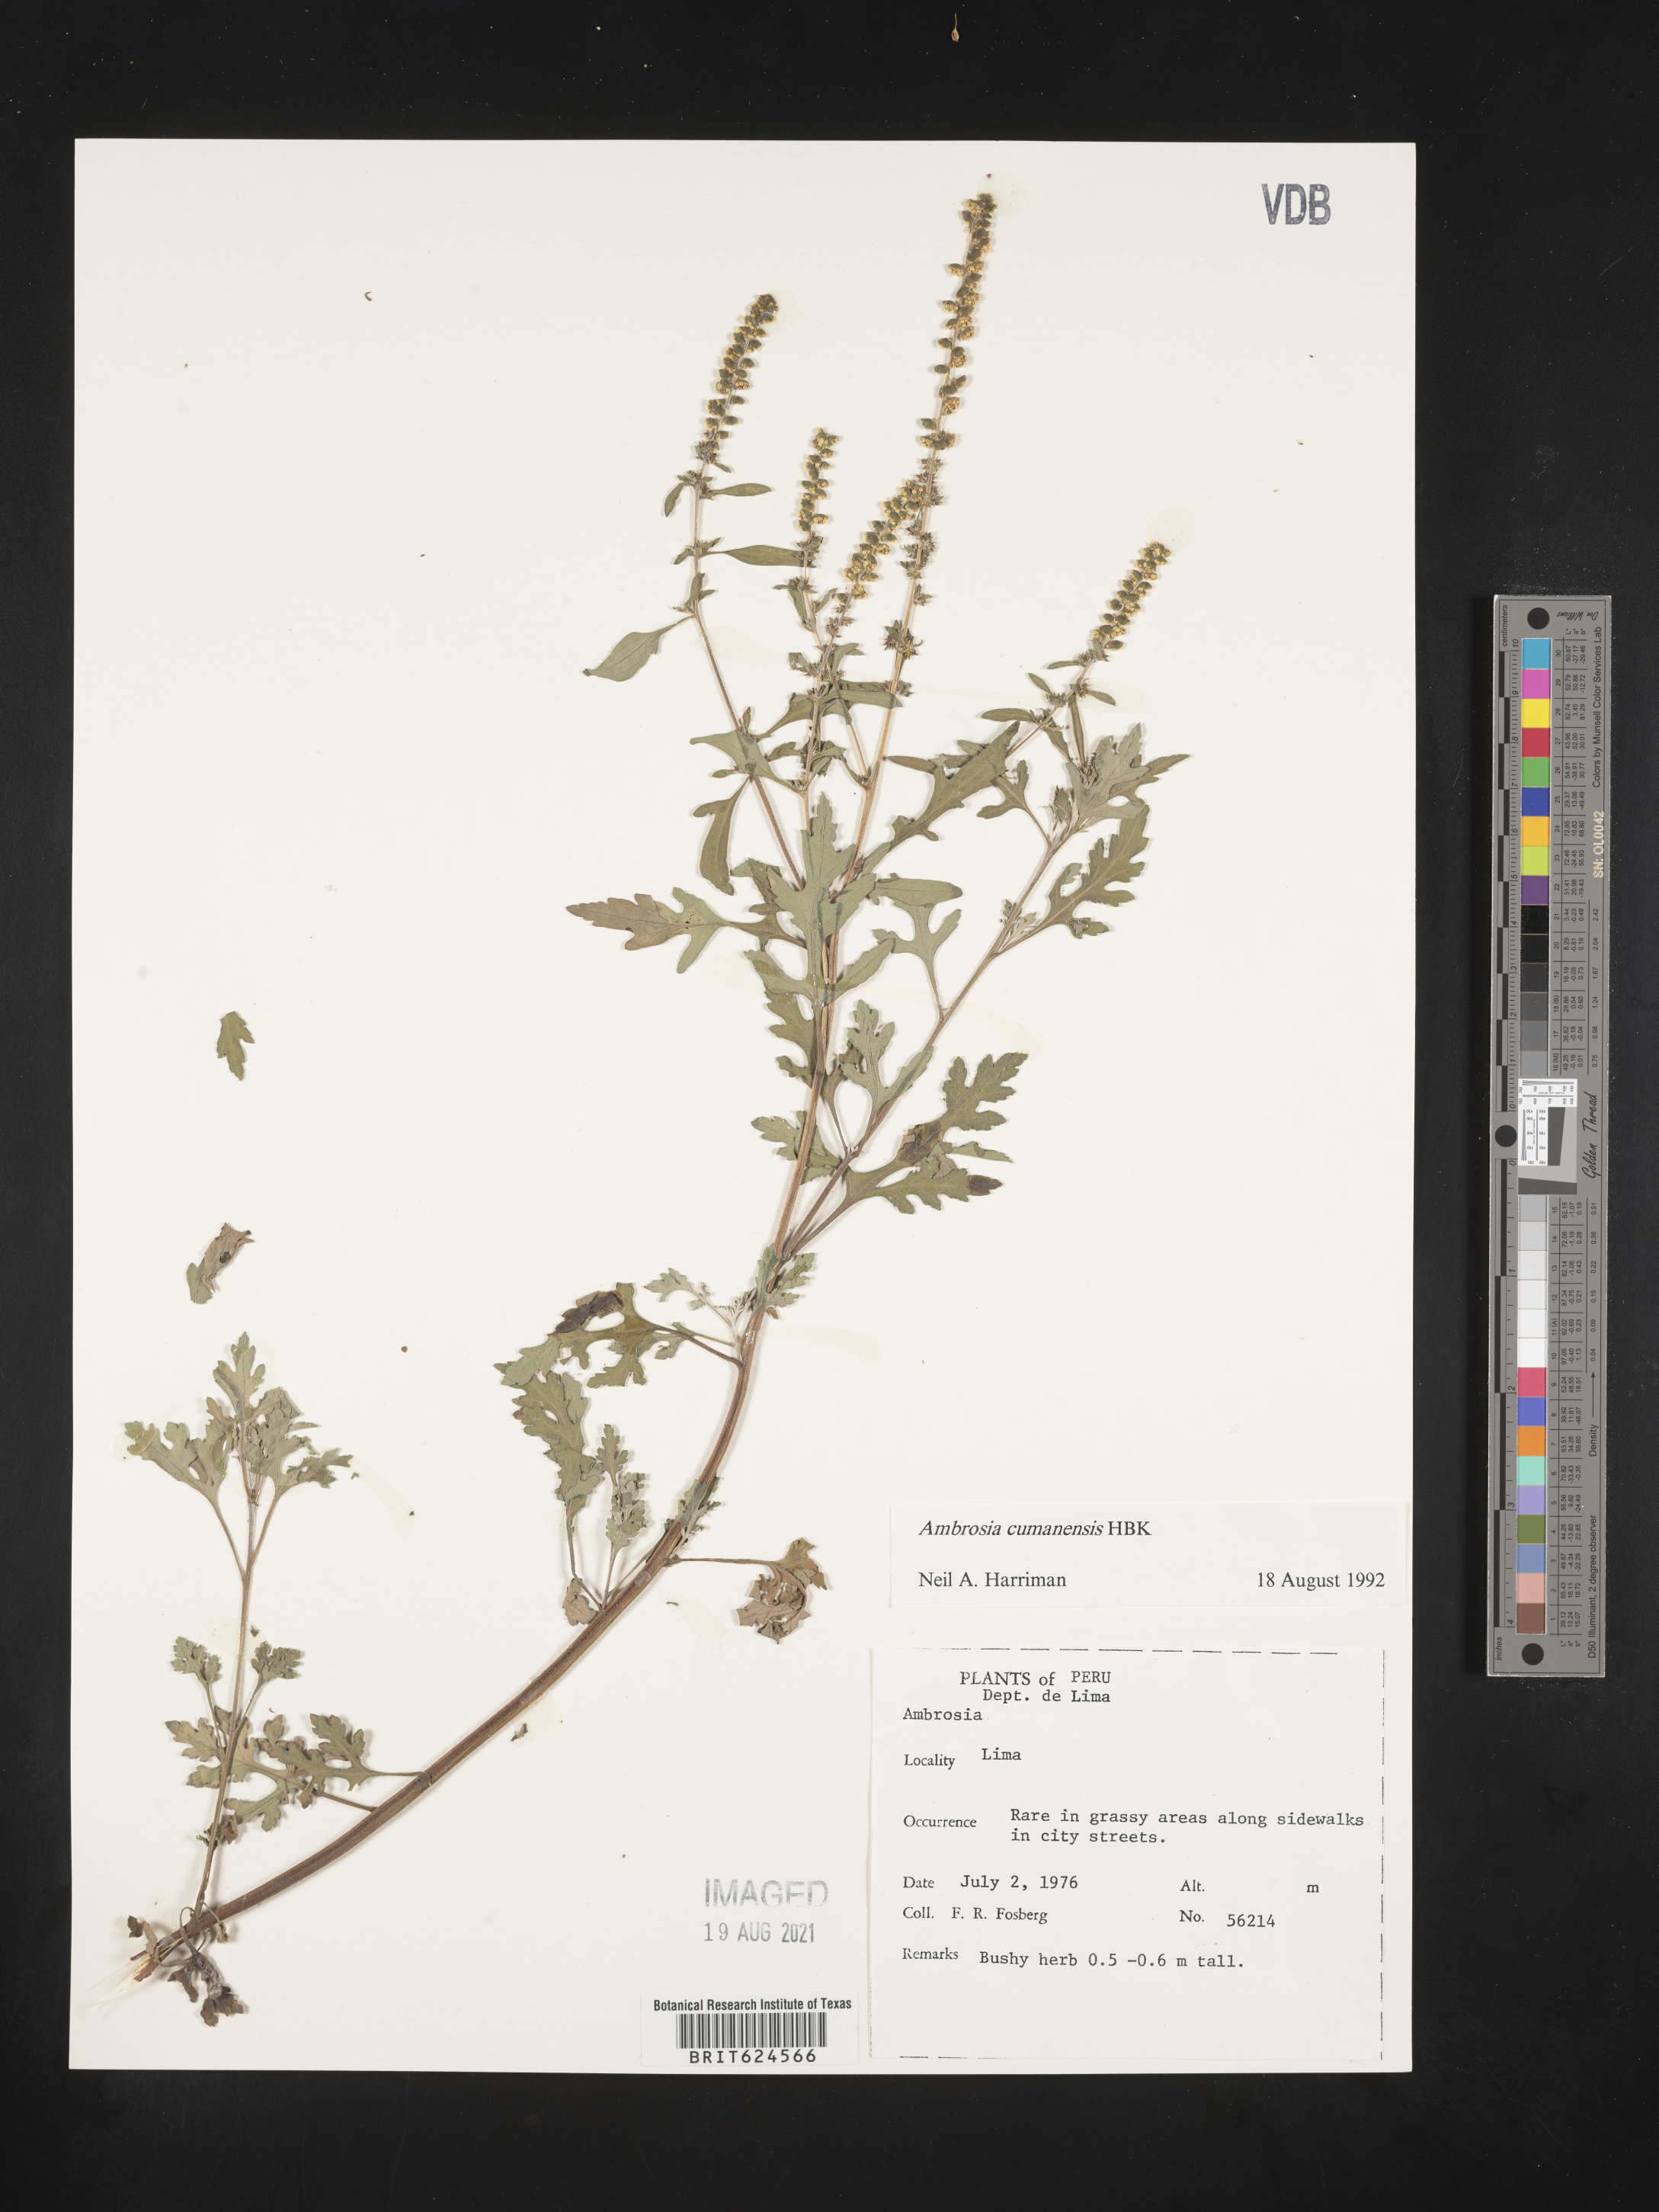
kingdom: Plantae
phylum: Tracheophyta
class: Magnoliopsida
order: Asterales
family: Asteraceae
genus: Ambrosia
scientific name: Ambrosia cumanensis
